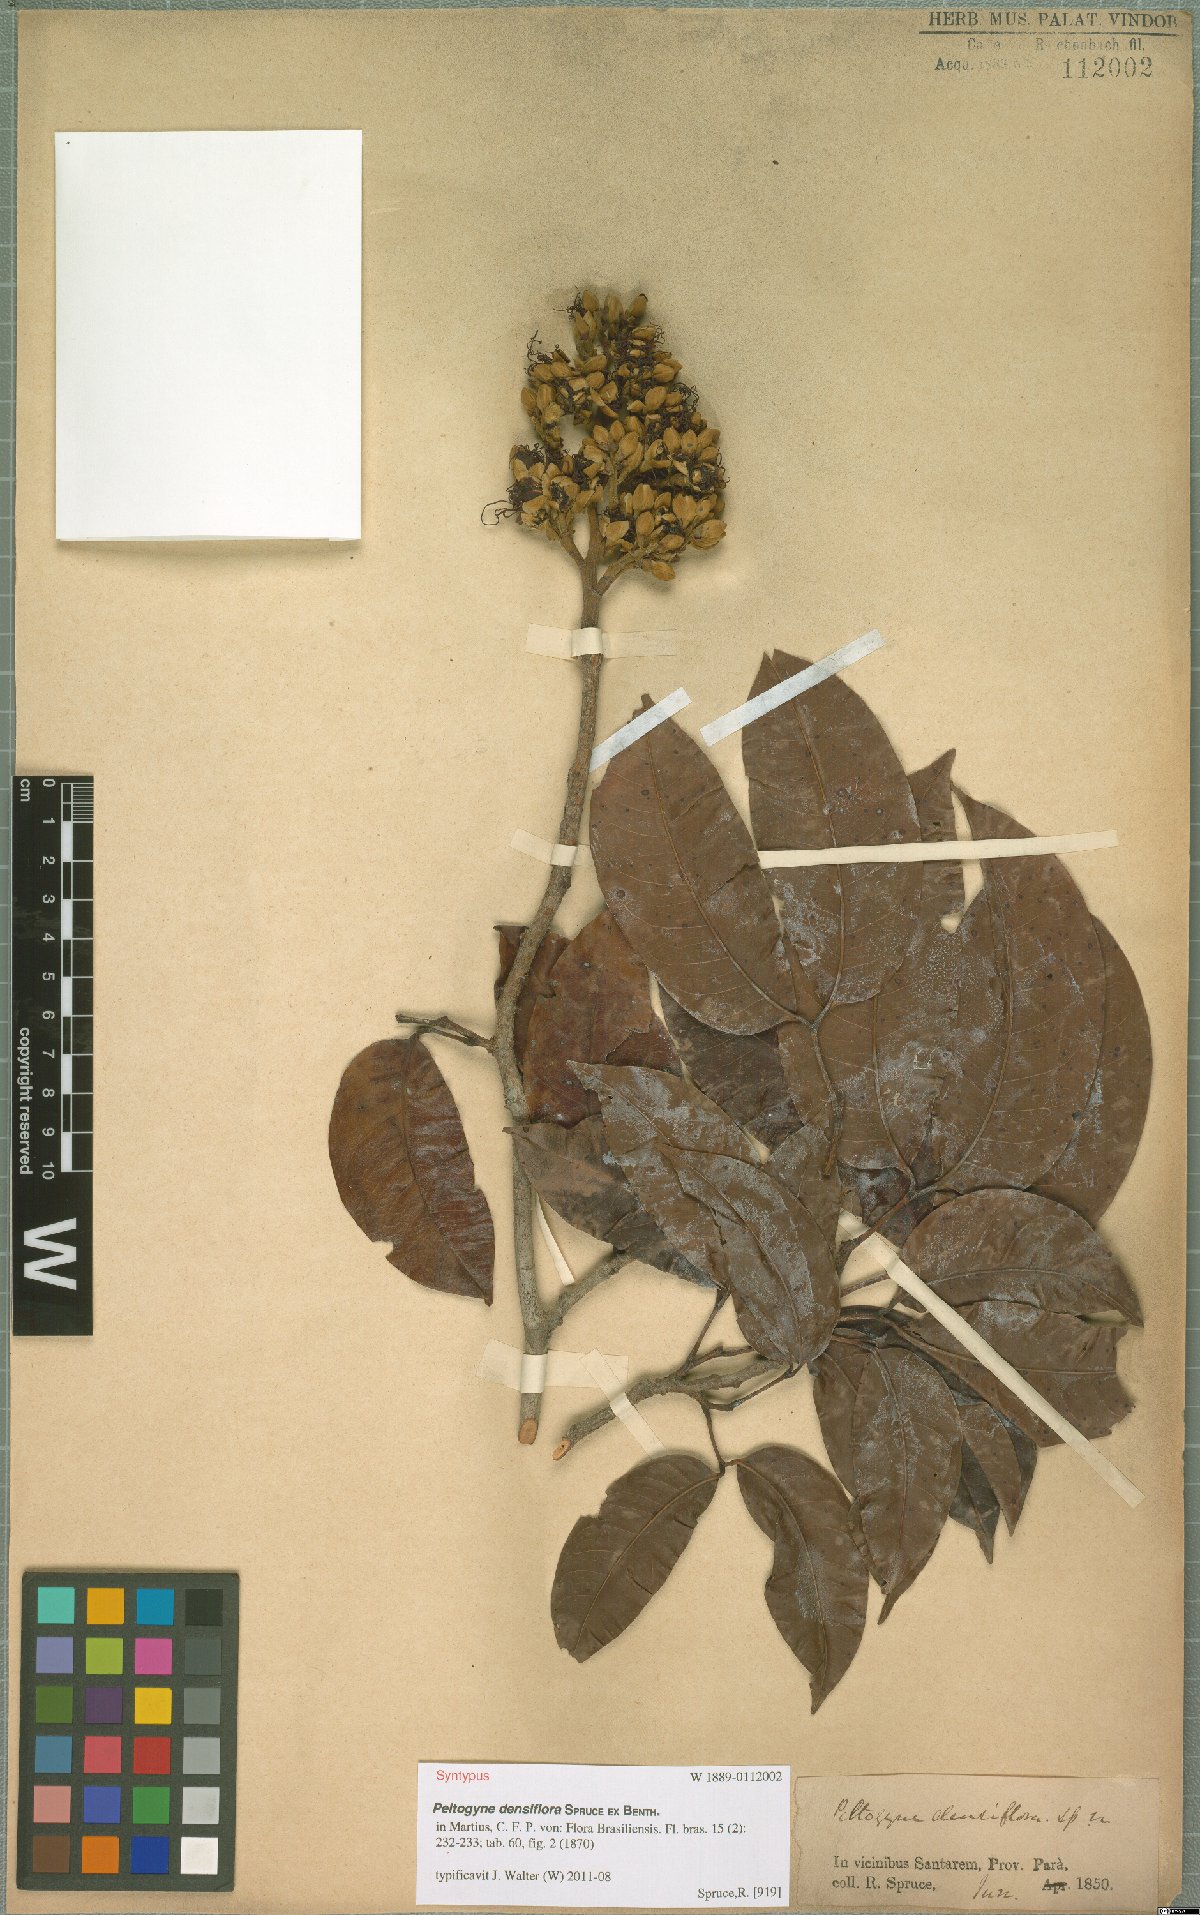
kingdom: Plantae
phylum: Tracheophyta
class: Magnoliopsida
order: Fabales
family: Fabaceae
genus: Peltogyne
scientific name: Peltogyne venosa
